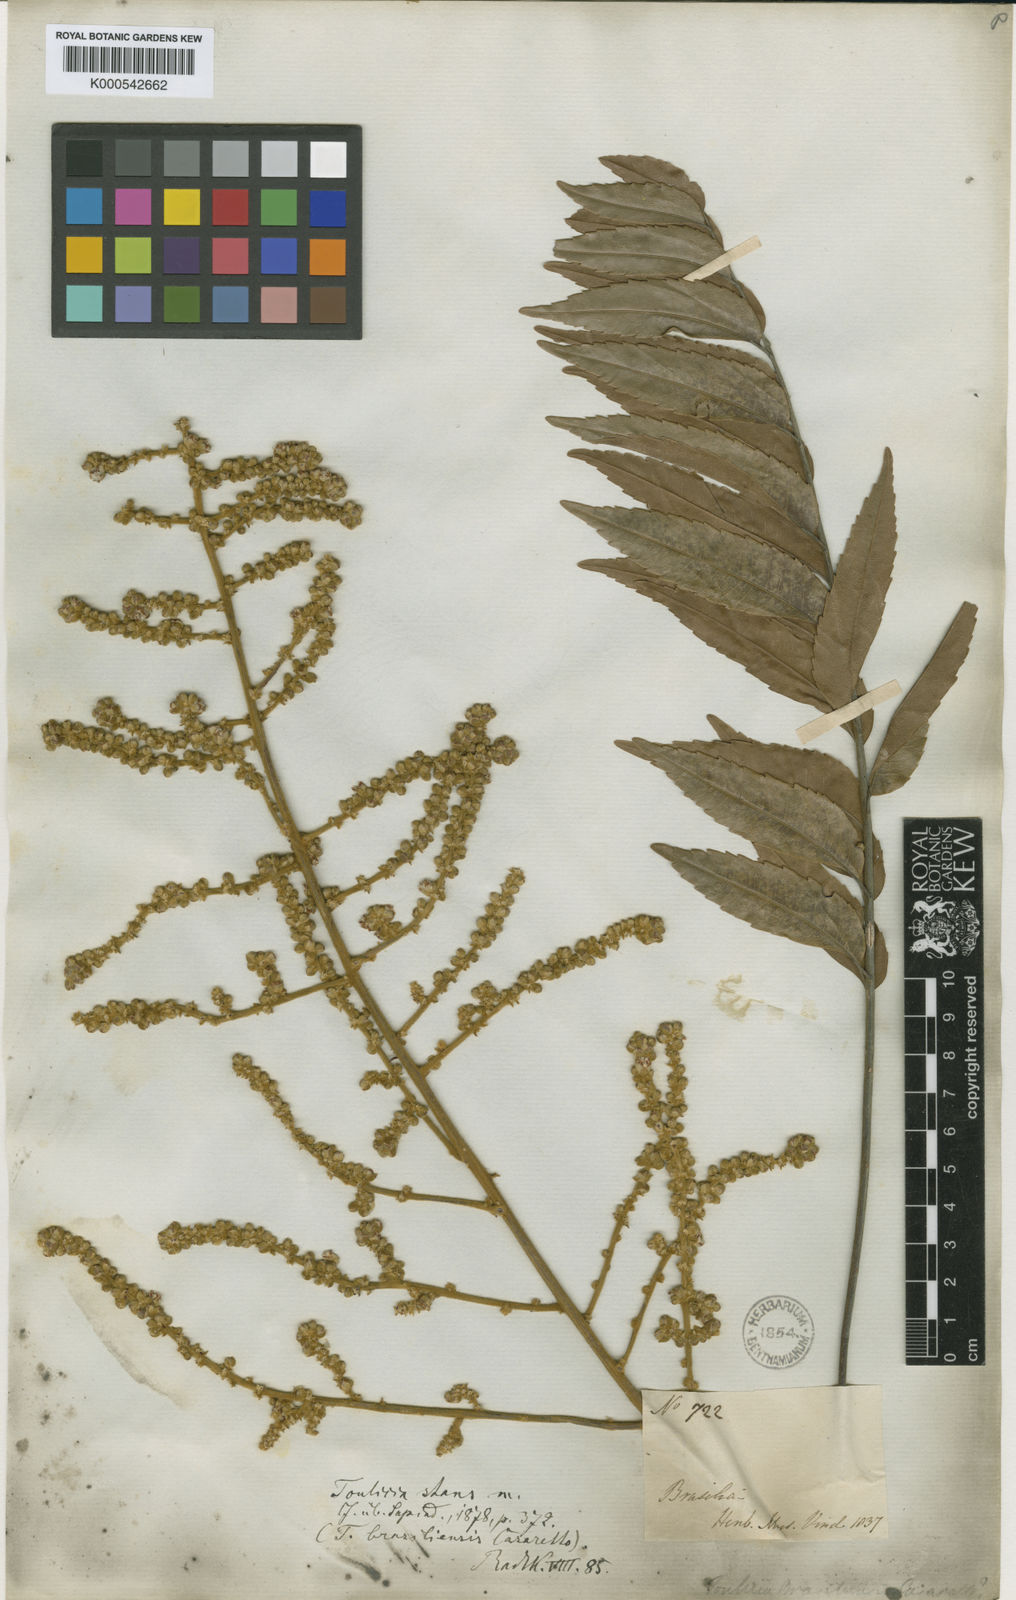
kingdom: Plantae
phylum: Tracheophyta
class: Magnoliopsida
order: Sapindales
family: Sapindaceae
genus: Toulicia
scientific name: Toulicia stans
